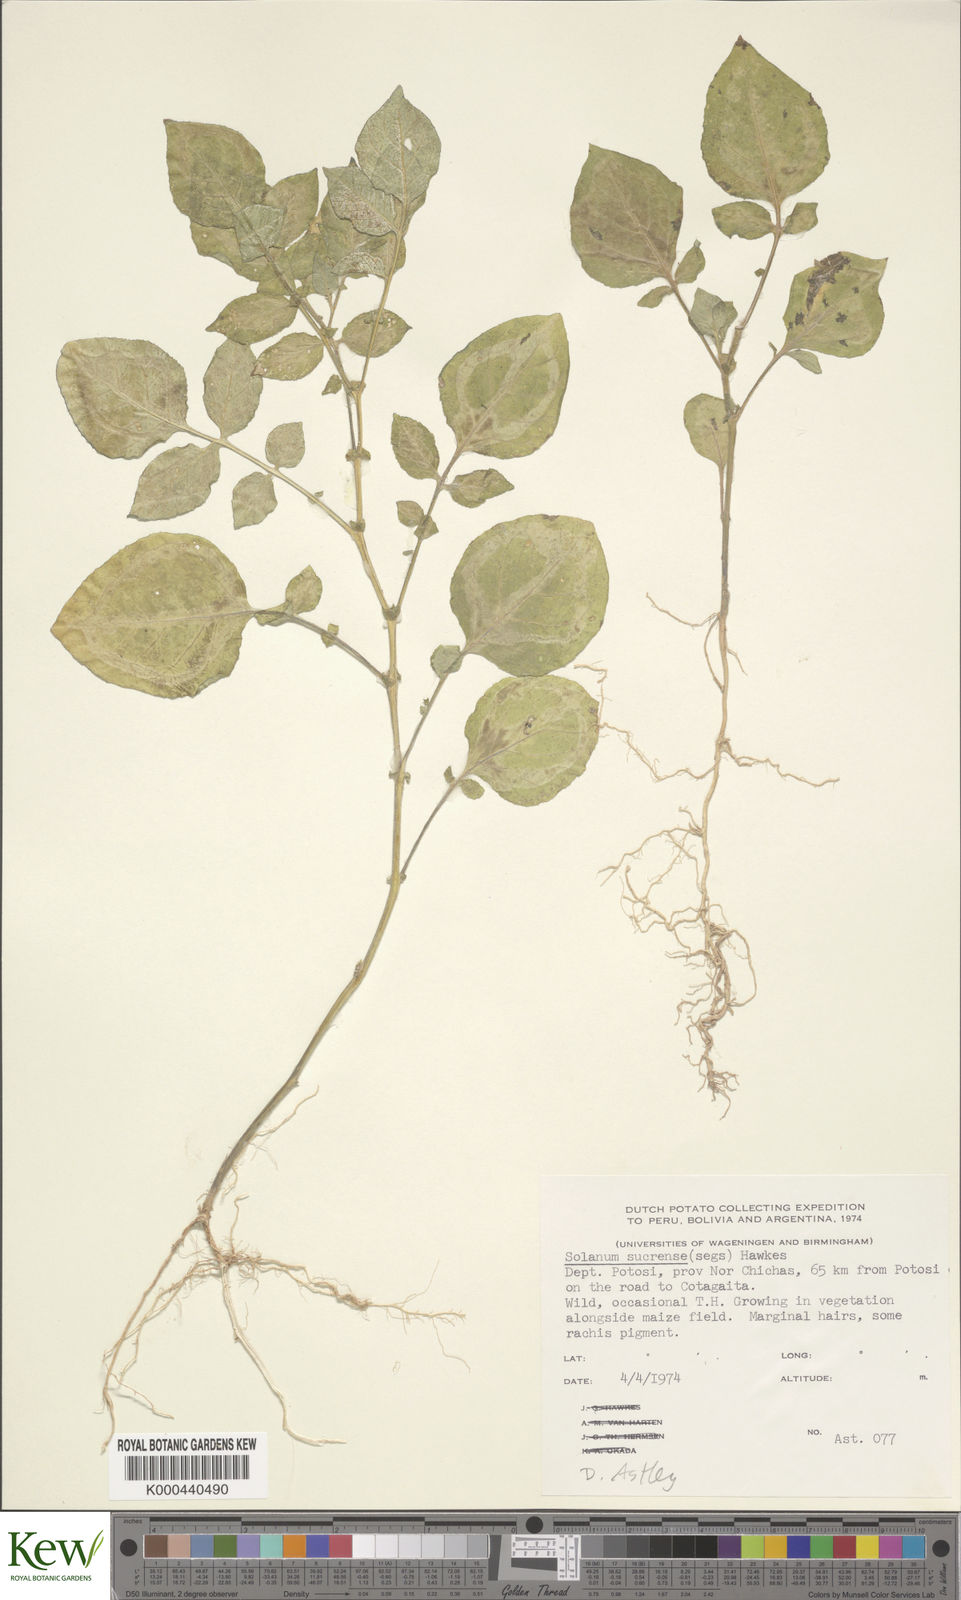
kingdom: Plantae
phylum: Tracheophyta
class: Magnoliopsida
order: Solanales
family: Solanaceae
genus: Solanum
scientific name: Solanum brevicaule
